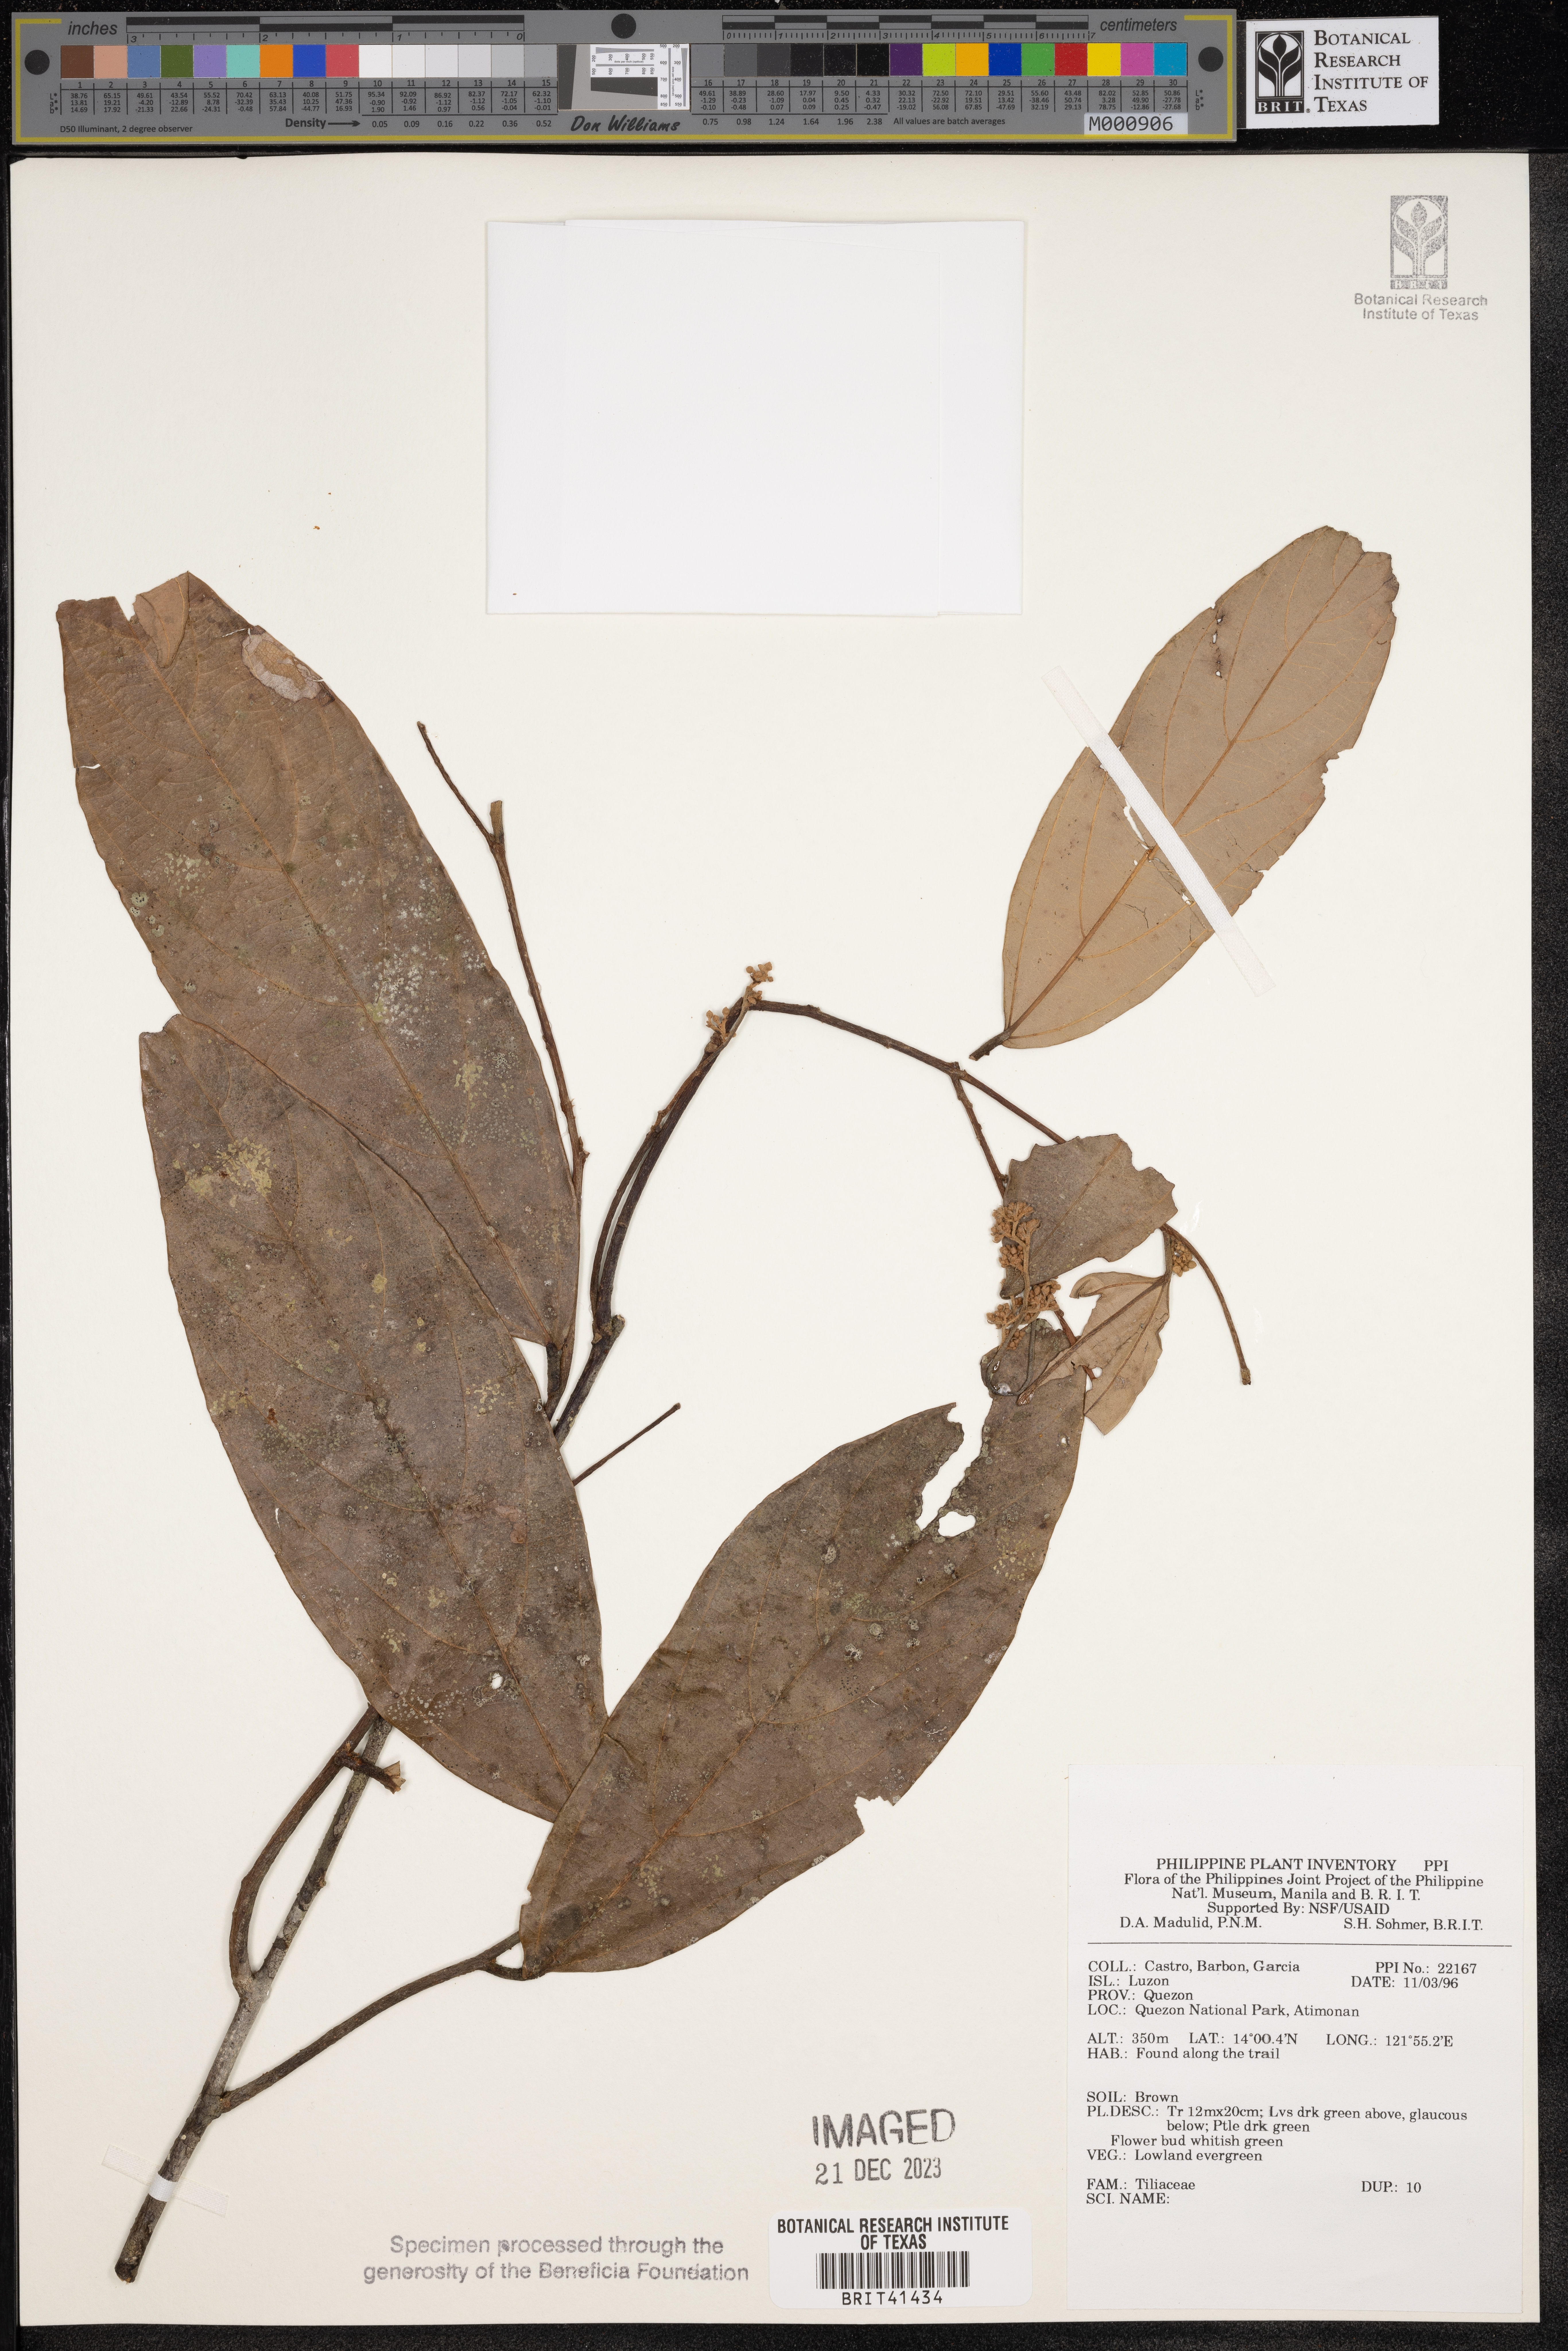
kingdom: Plantae
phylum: Tracheophyta
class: Magnoliopsida
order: Malvales
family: Tiliaceae
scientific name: Tiliaceae
